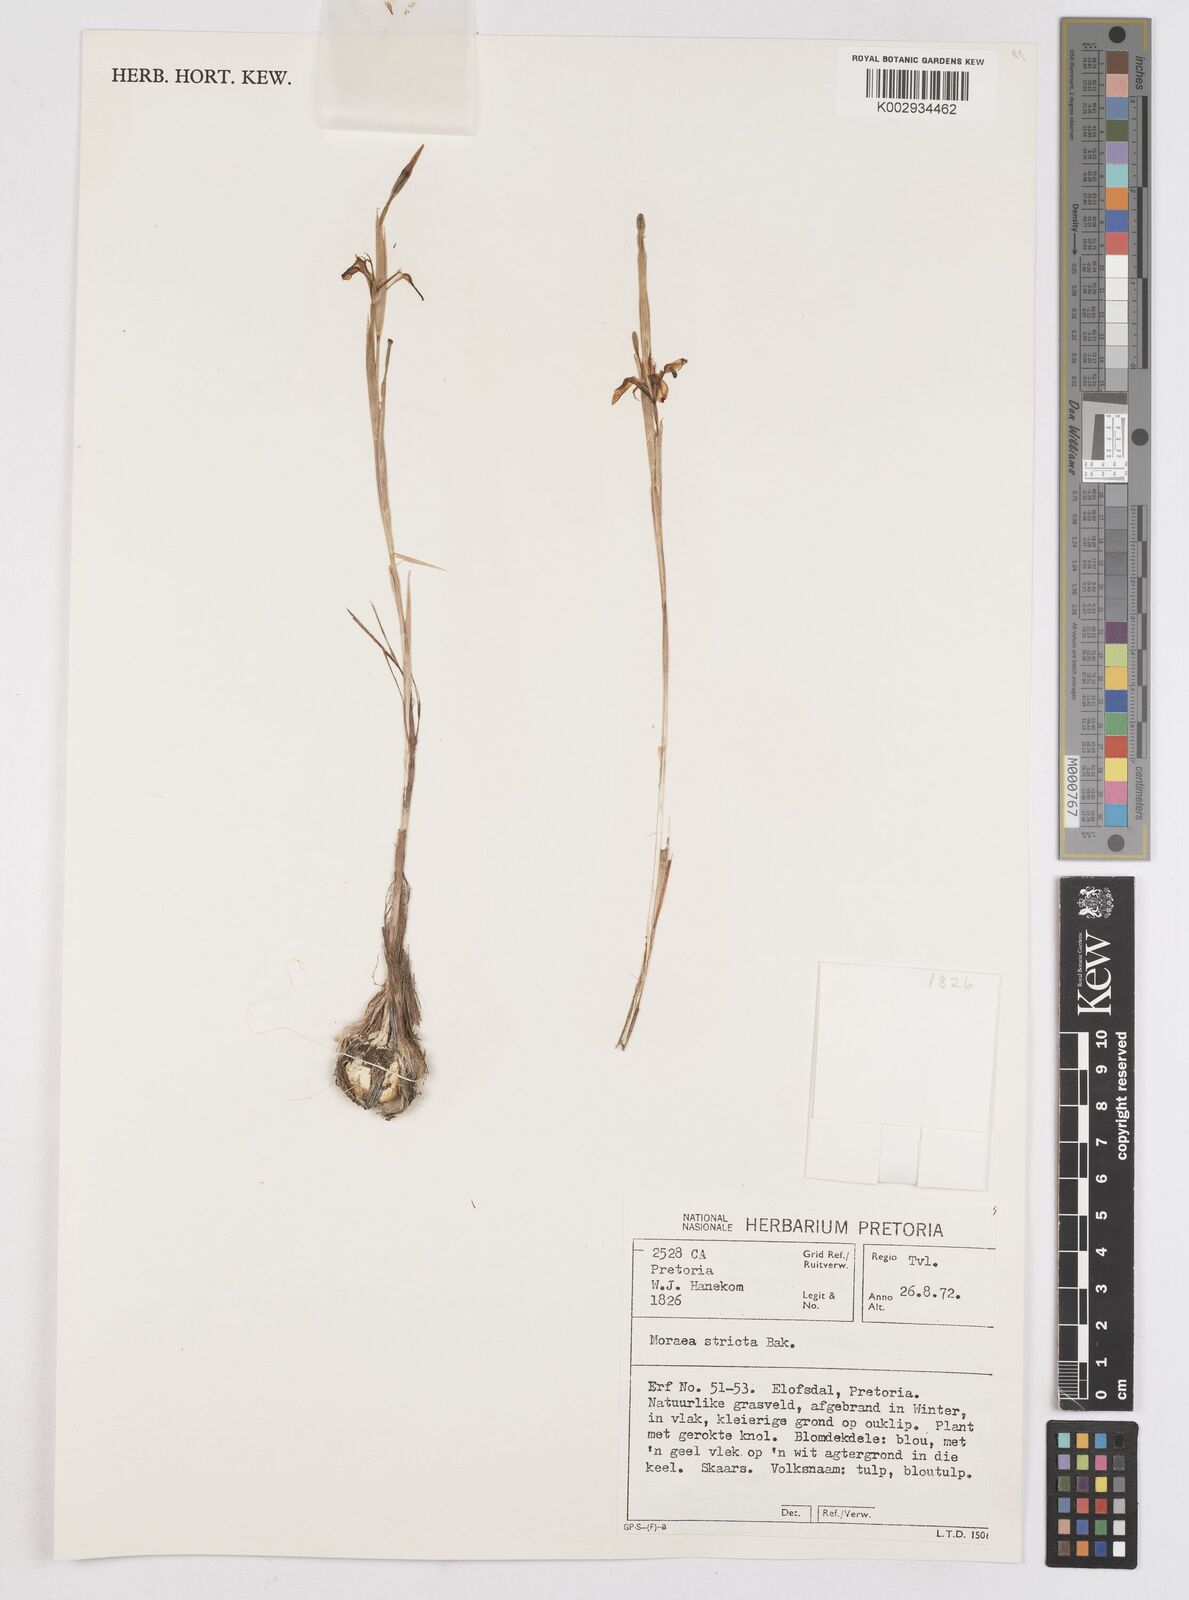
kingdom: Plantae
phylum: Tracheophyta
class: Liliopsida
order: Asparagales
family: Iridaceae
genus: Moraea
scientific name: Moraea stricta
